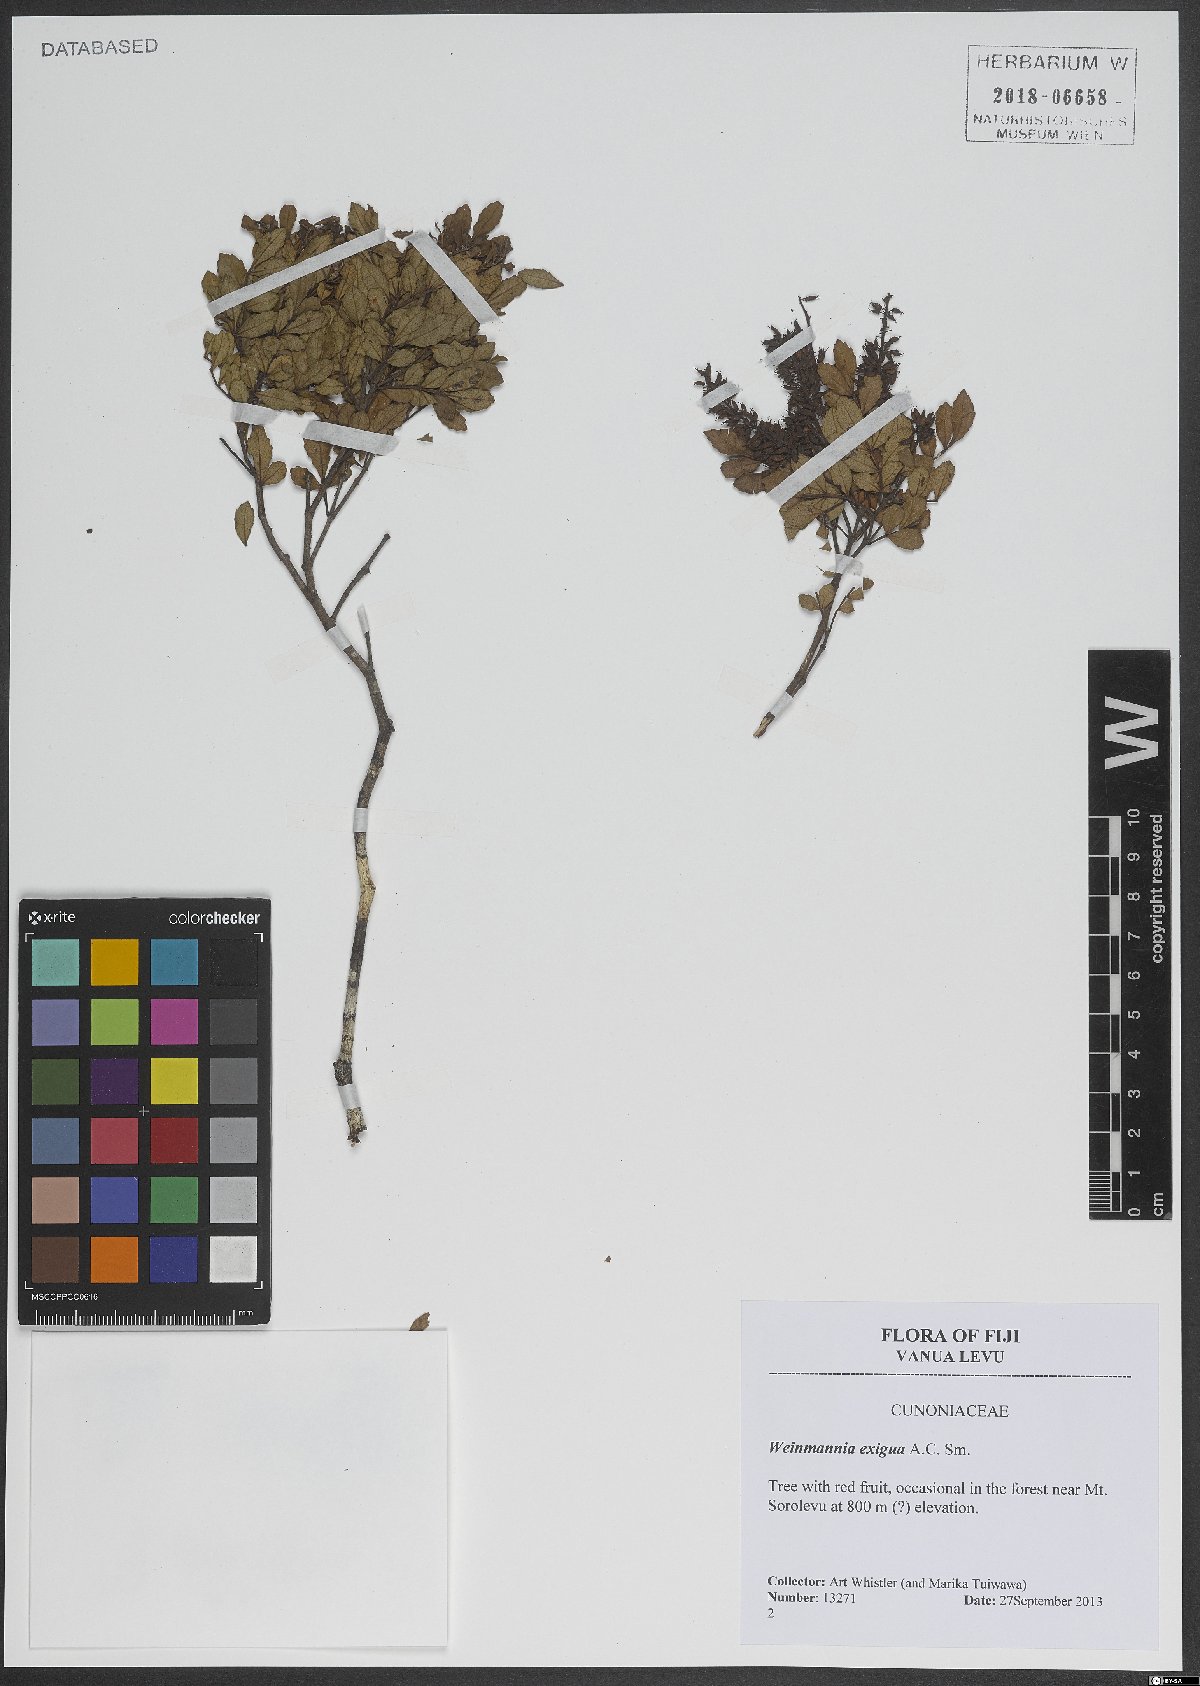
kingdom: Plantae
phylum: Tracheophyta
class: Magnoliopsida
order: Oxalidales
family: Cunoniaceae
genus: Pterophylla
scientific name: Pterophylla exigua
